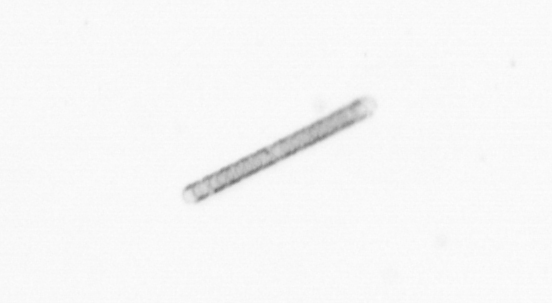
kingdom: Chromista
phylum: Ochrophyta
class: Bacillariophyceae
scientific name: Bacillariophyceae
